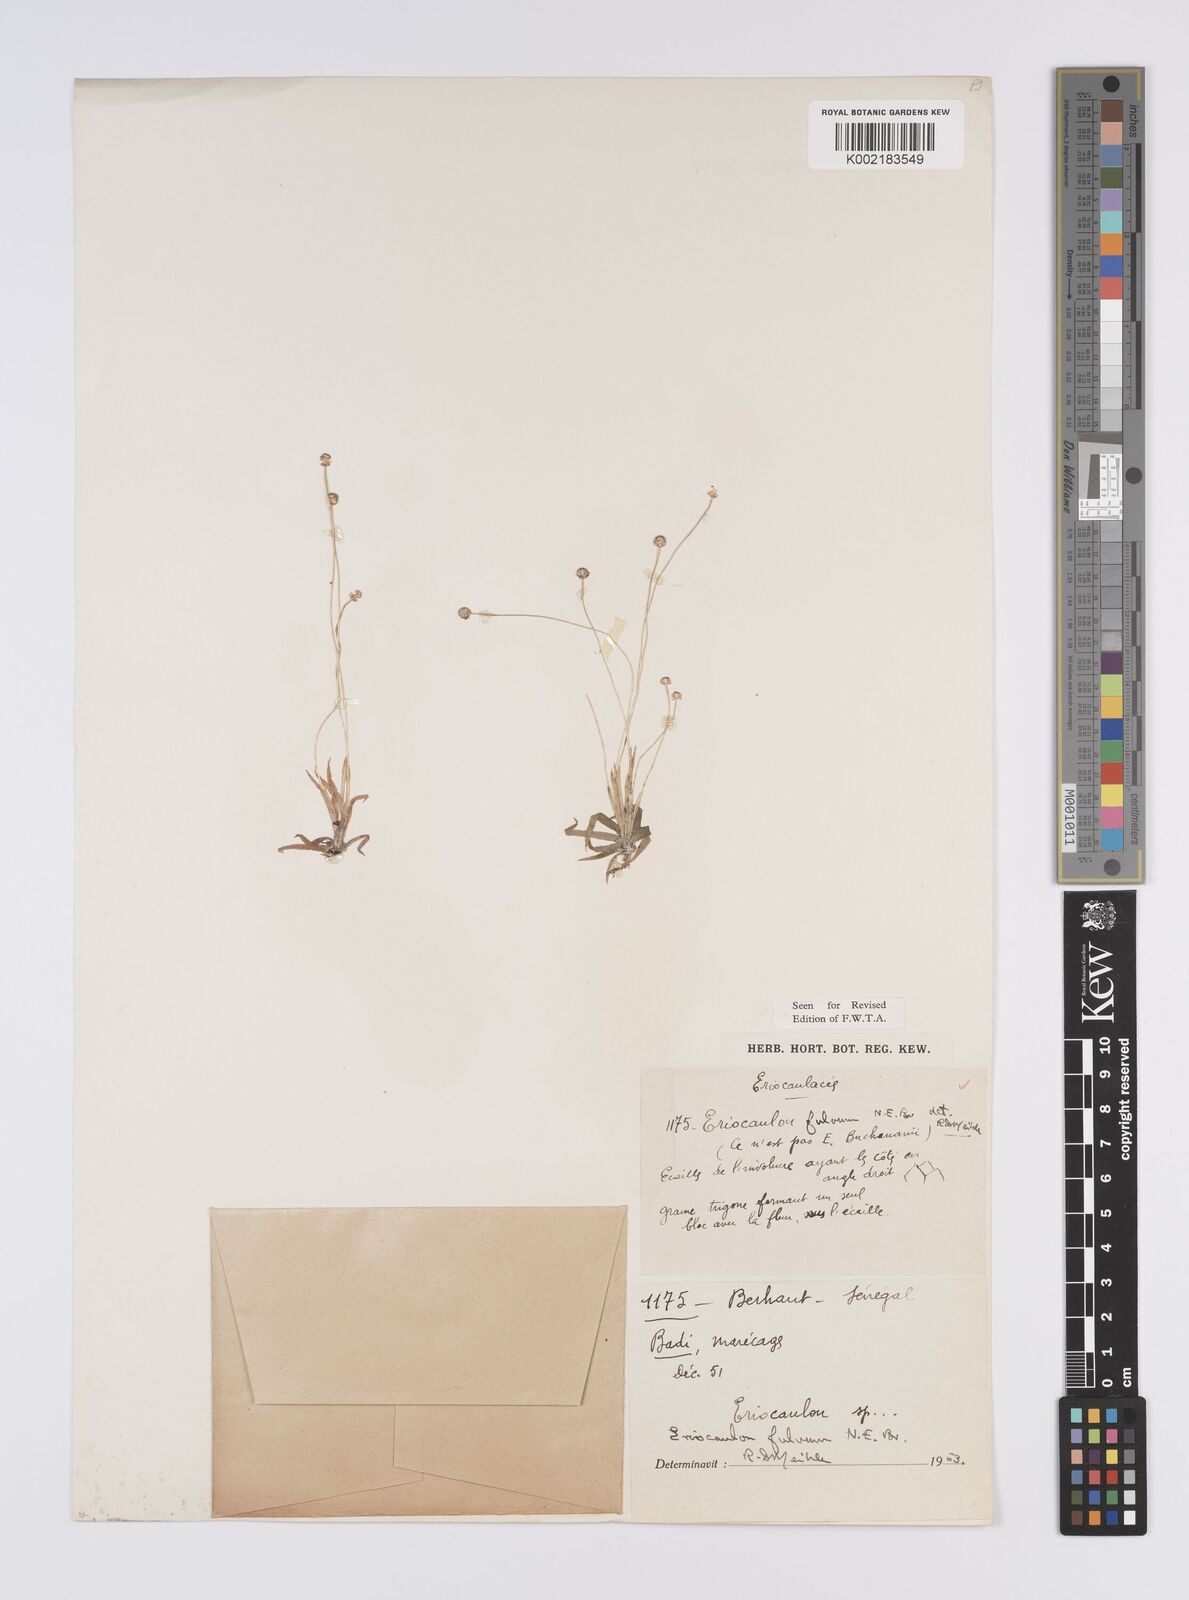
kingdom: Plantae
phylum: Tracheophyta
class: Liliopsida
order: Poales
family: Eriocaulaceae
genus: Eriocaulon
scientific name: Eriocaulon fulvum
